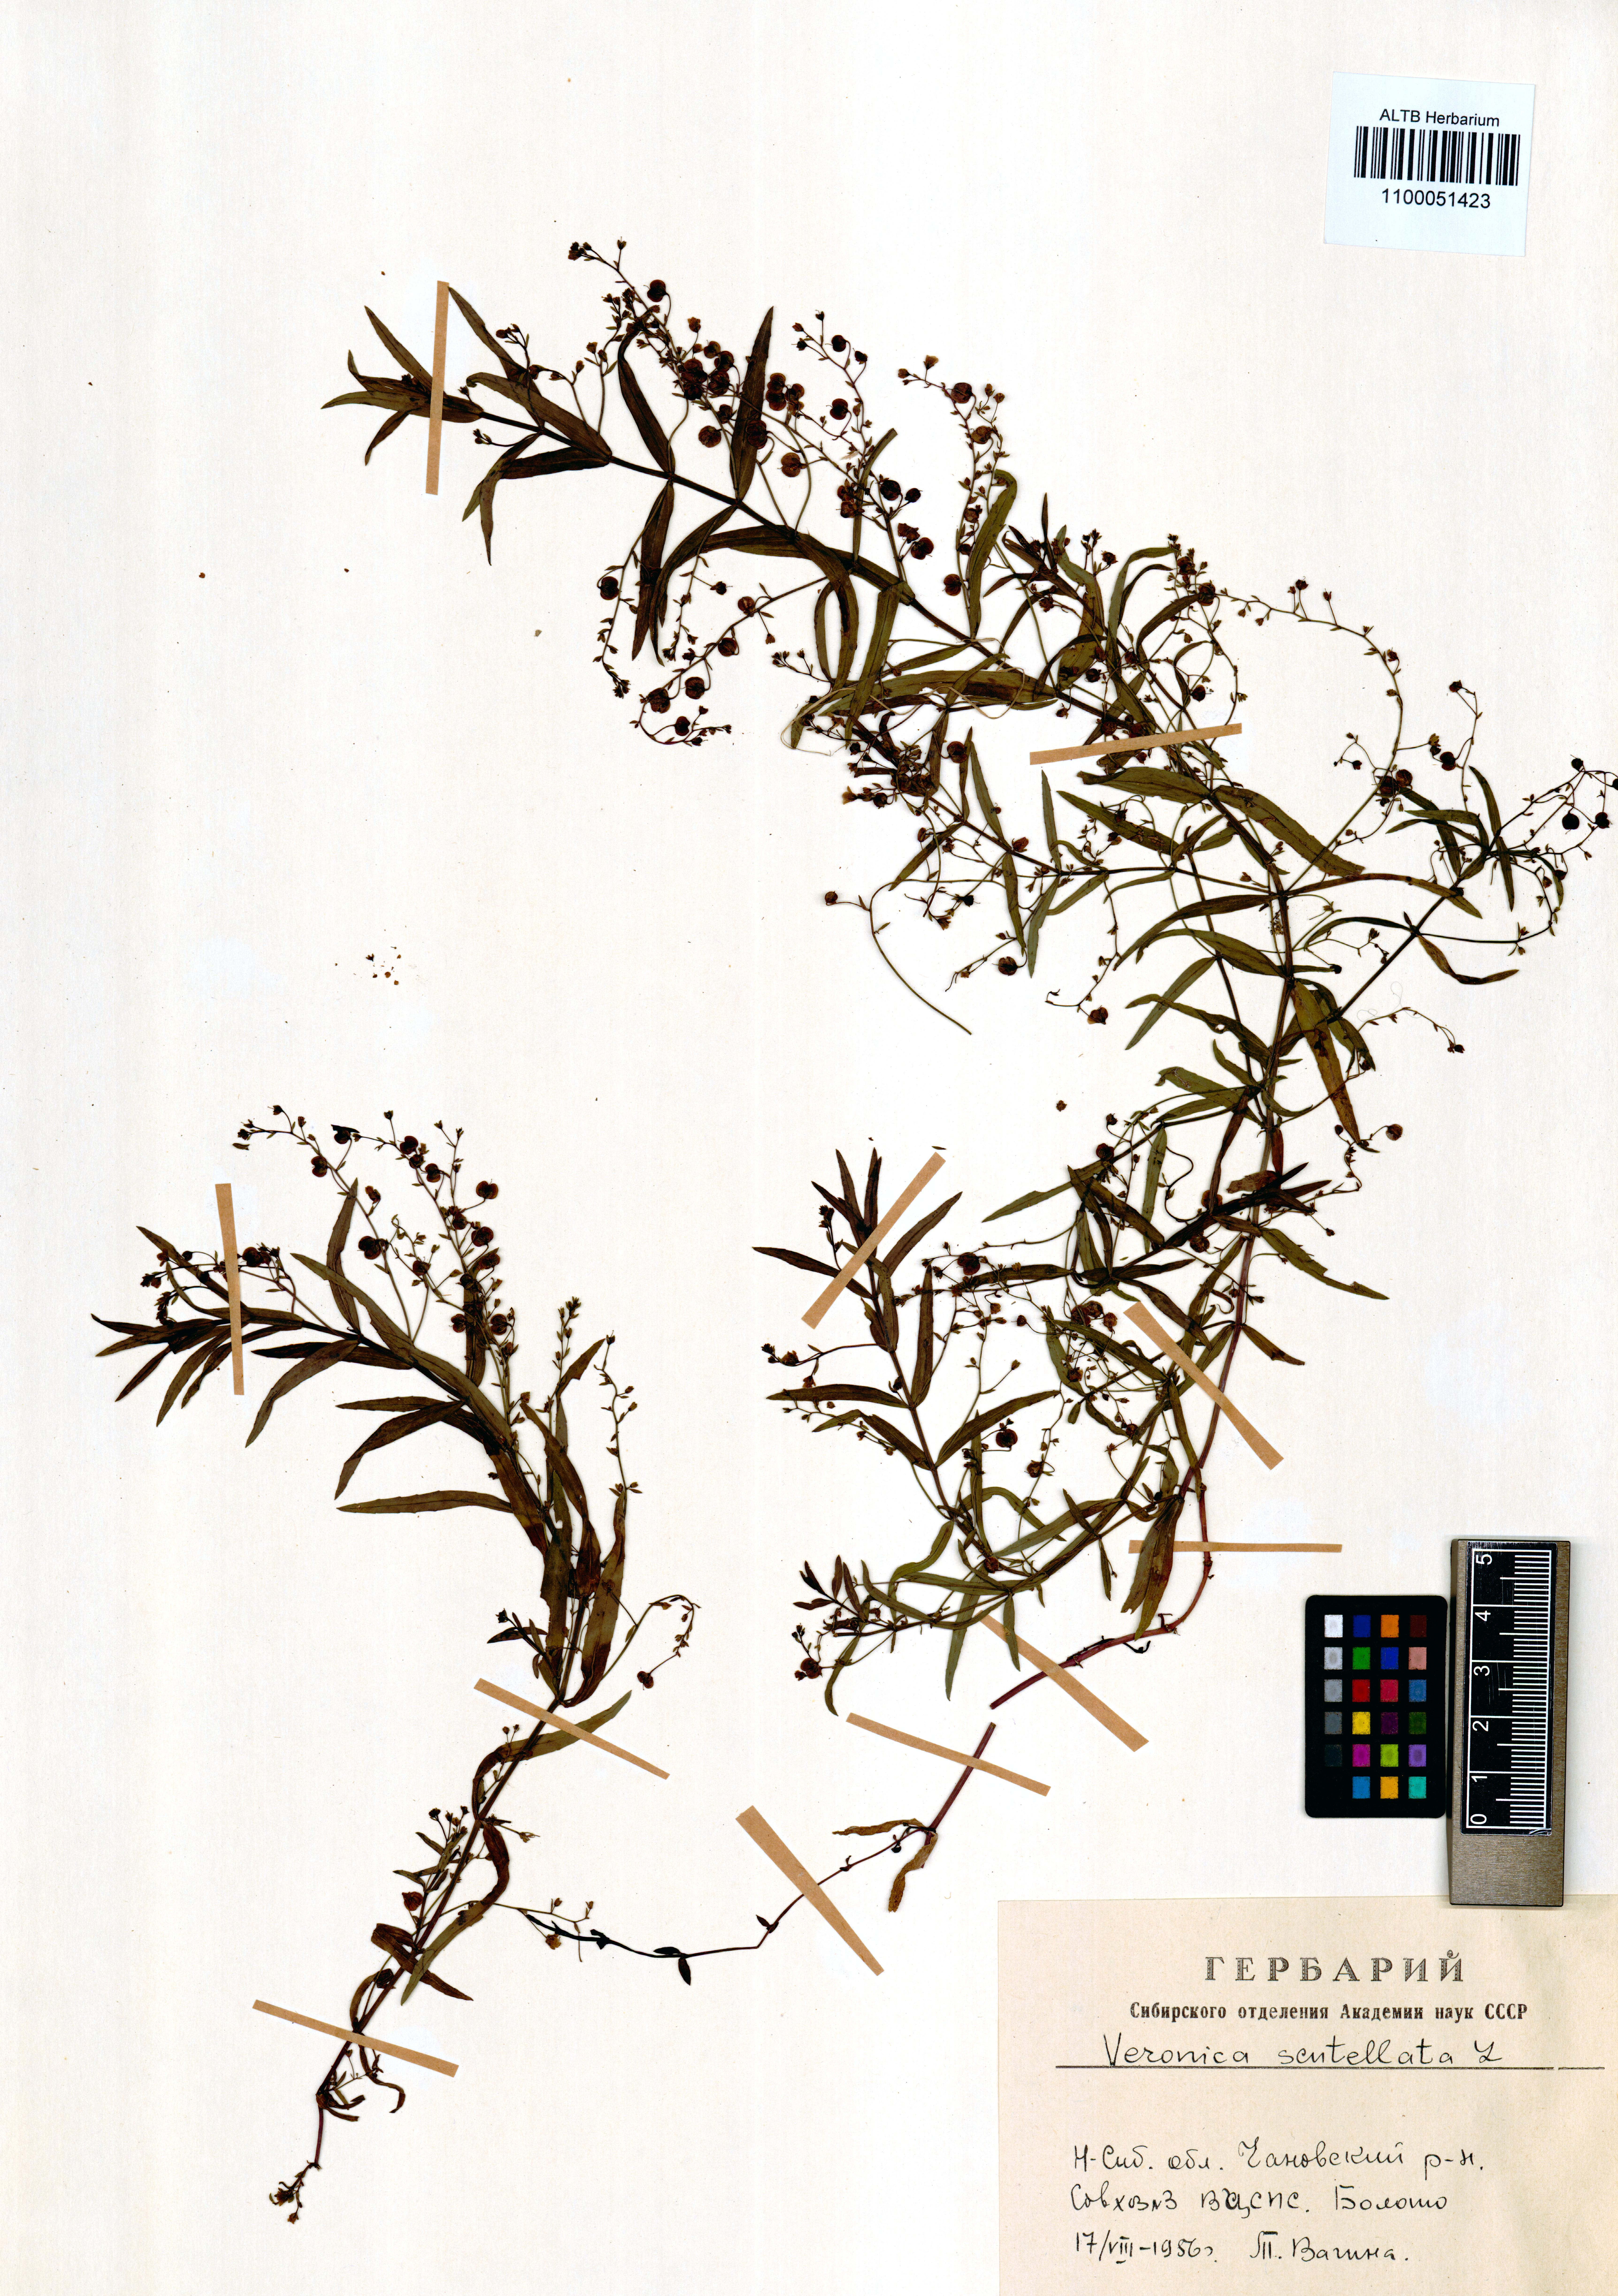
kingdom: Plantae
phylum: Tracheophyta
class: Magnoliopsida
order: Lamiales
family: Plantaginaceae
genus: Veronica
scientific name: Veronica scutellata
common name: Marsh speedwell
